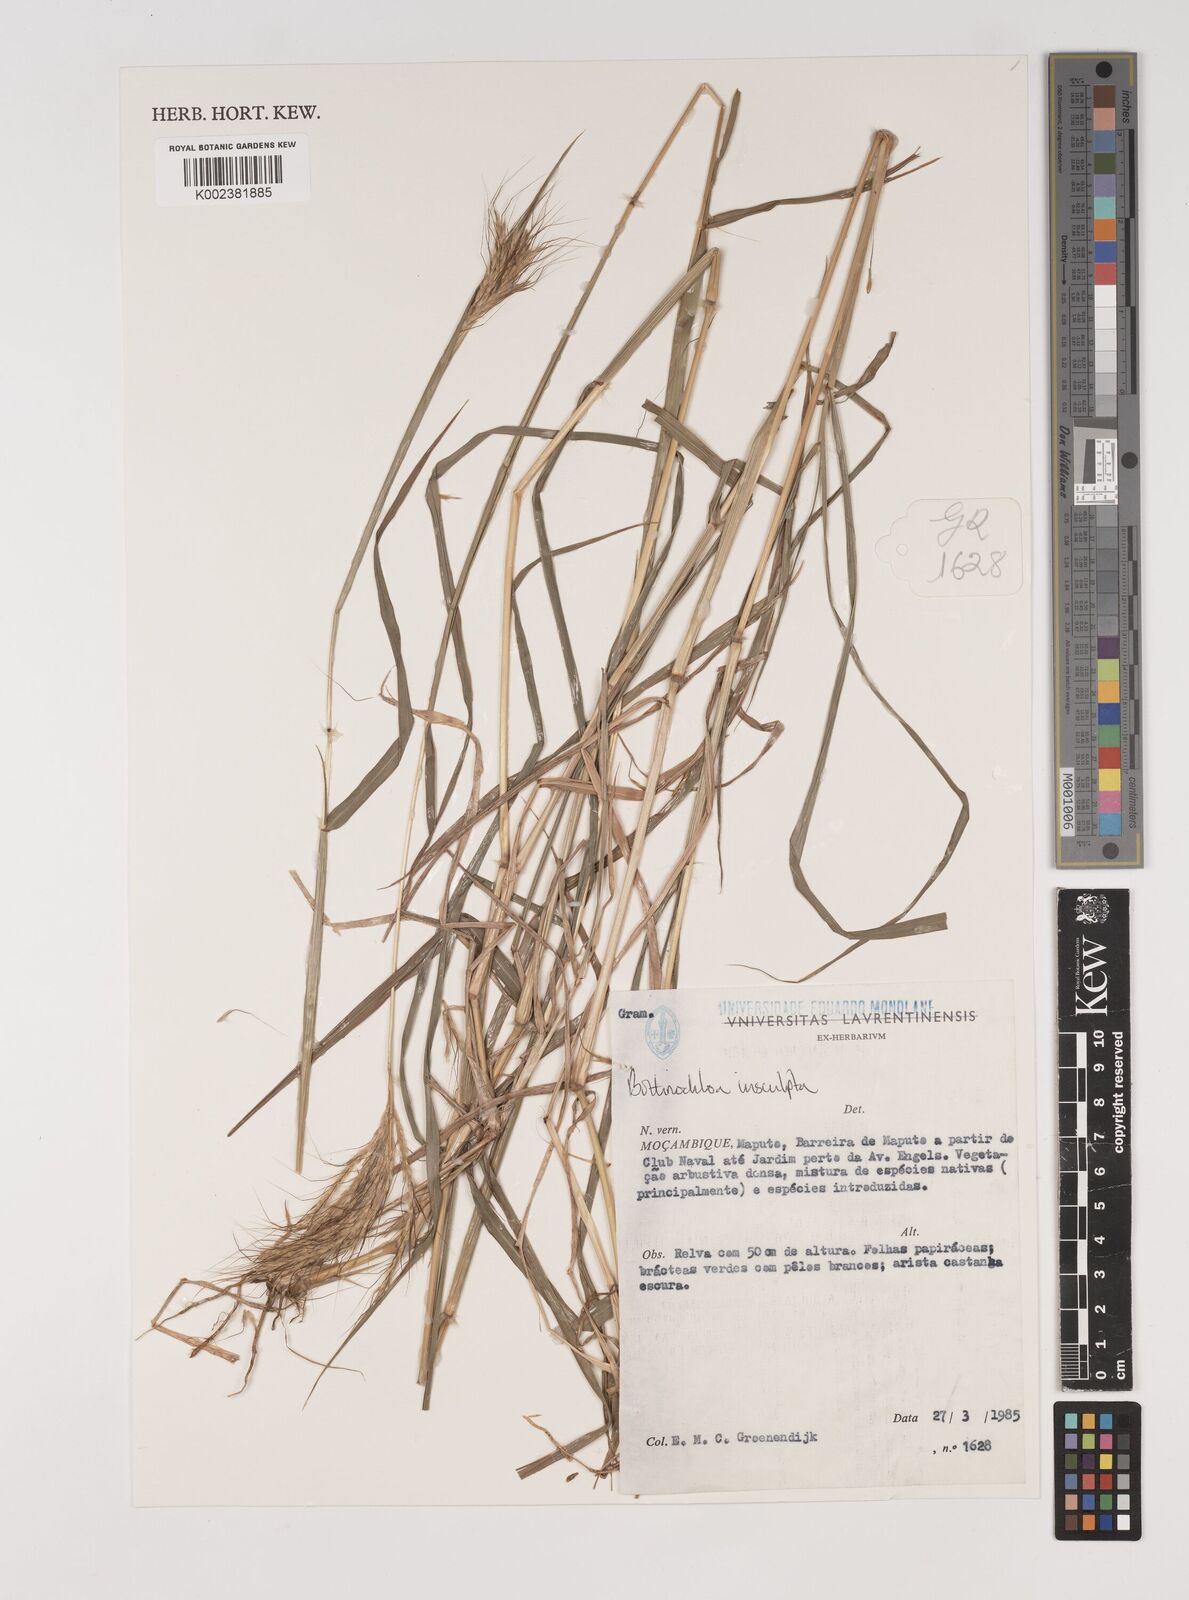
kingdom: Plantae
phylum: Tracheophyta
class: Liliopsida
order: Poales
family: Poaceae
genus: Bothriochloa
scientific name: Bothriochloa insculpta
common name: Creeping-bluegrass
